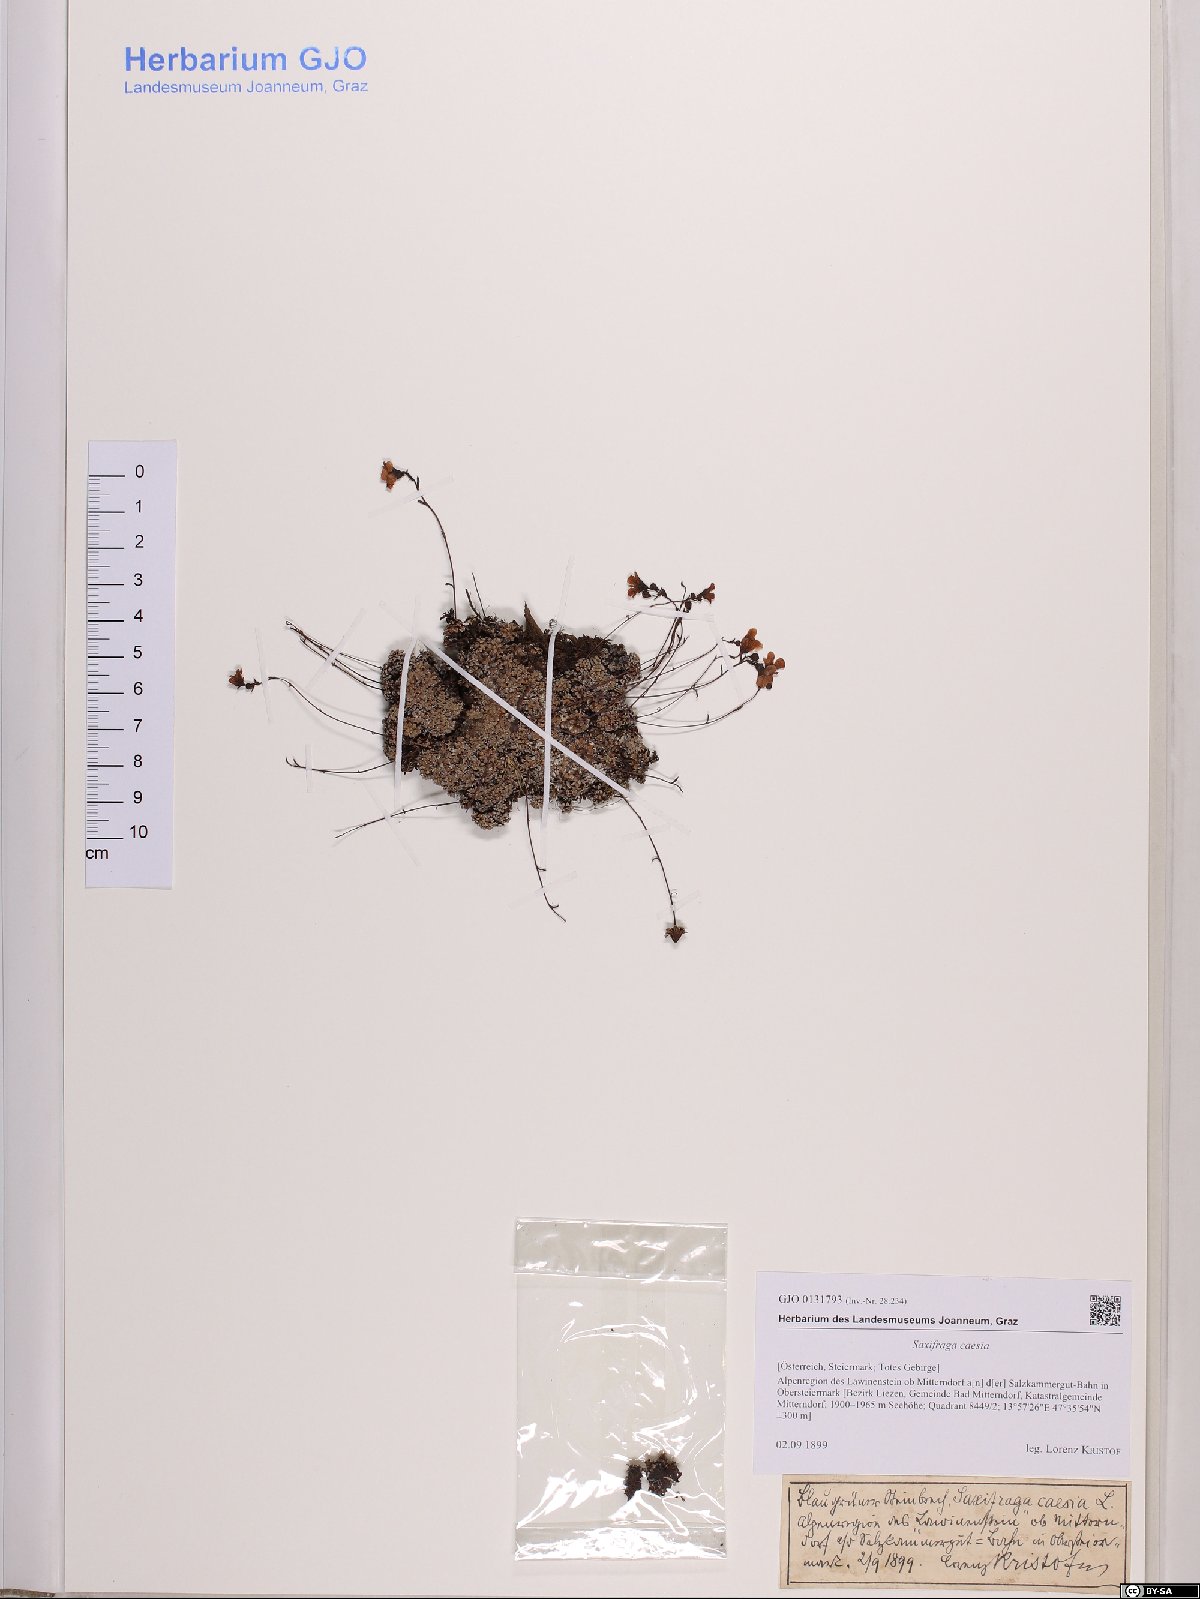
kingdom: Plantae
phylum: Tracheophyta
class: Magnoliopsida
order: Saxifragales
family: Saxifragaceae
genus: Saxifraga
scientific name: Saxifraga caesia
